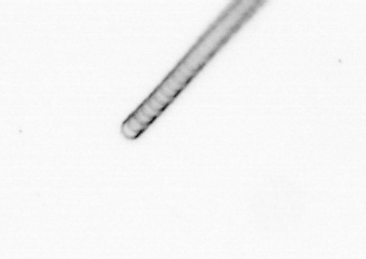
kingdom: Chromista
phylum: Ochrophyta
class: Bacillariophyceae
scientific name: Bacillariophyceae
